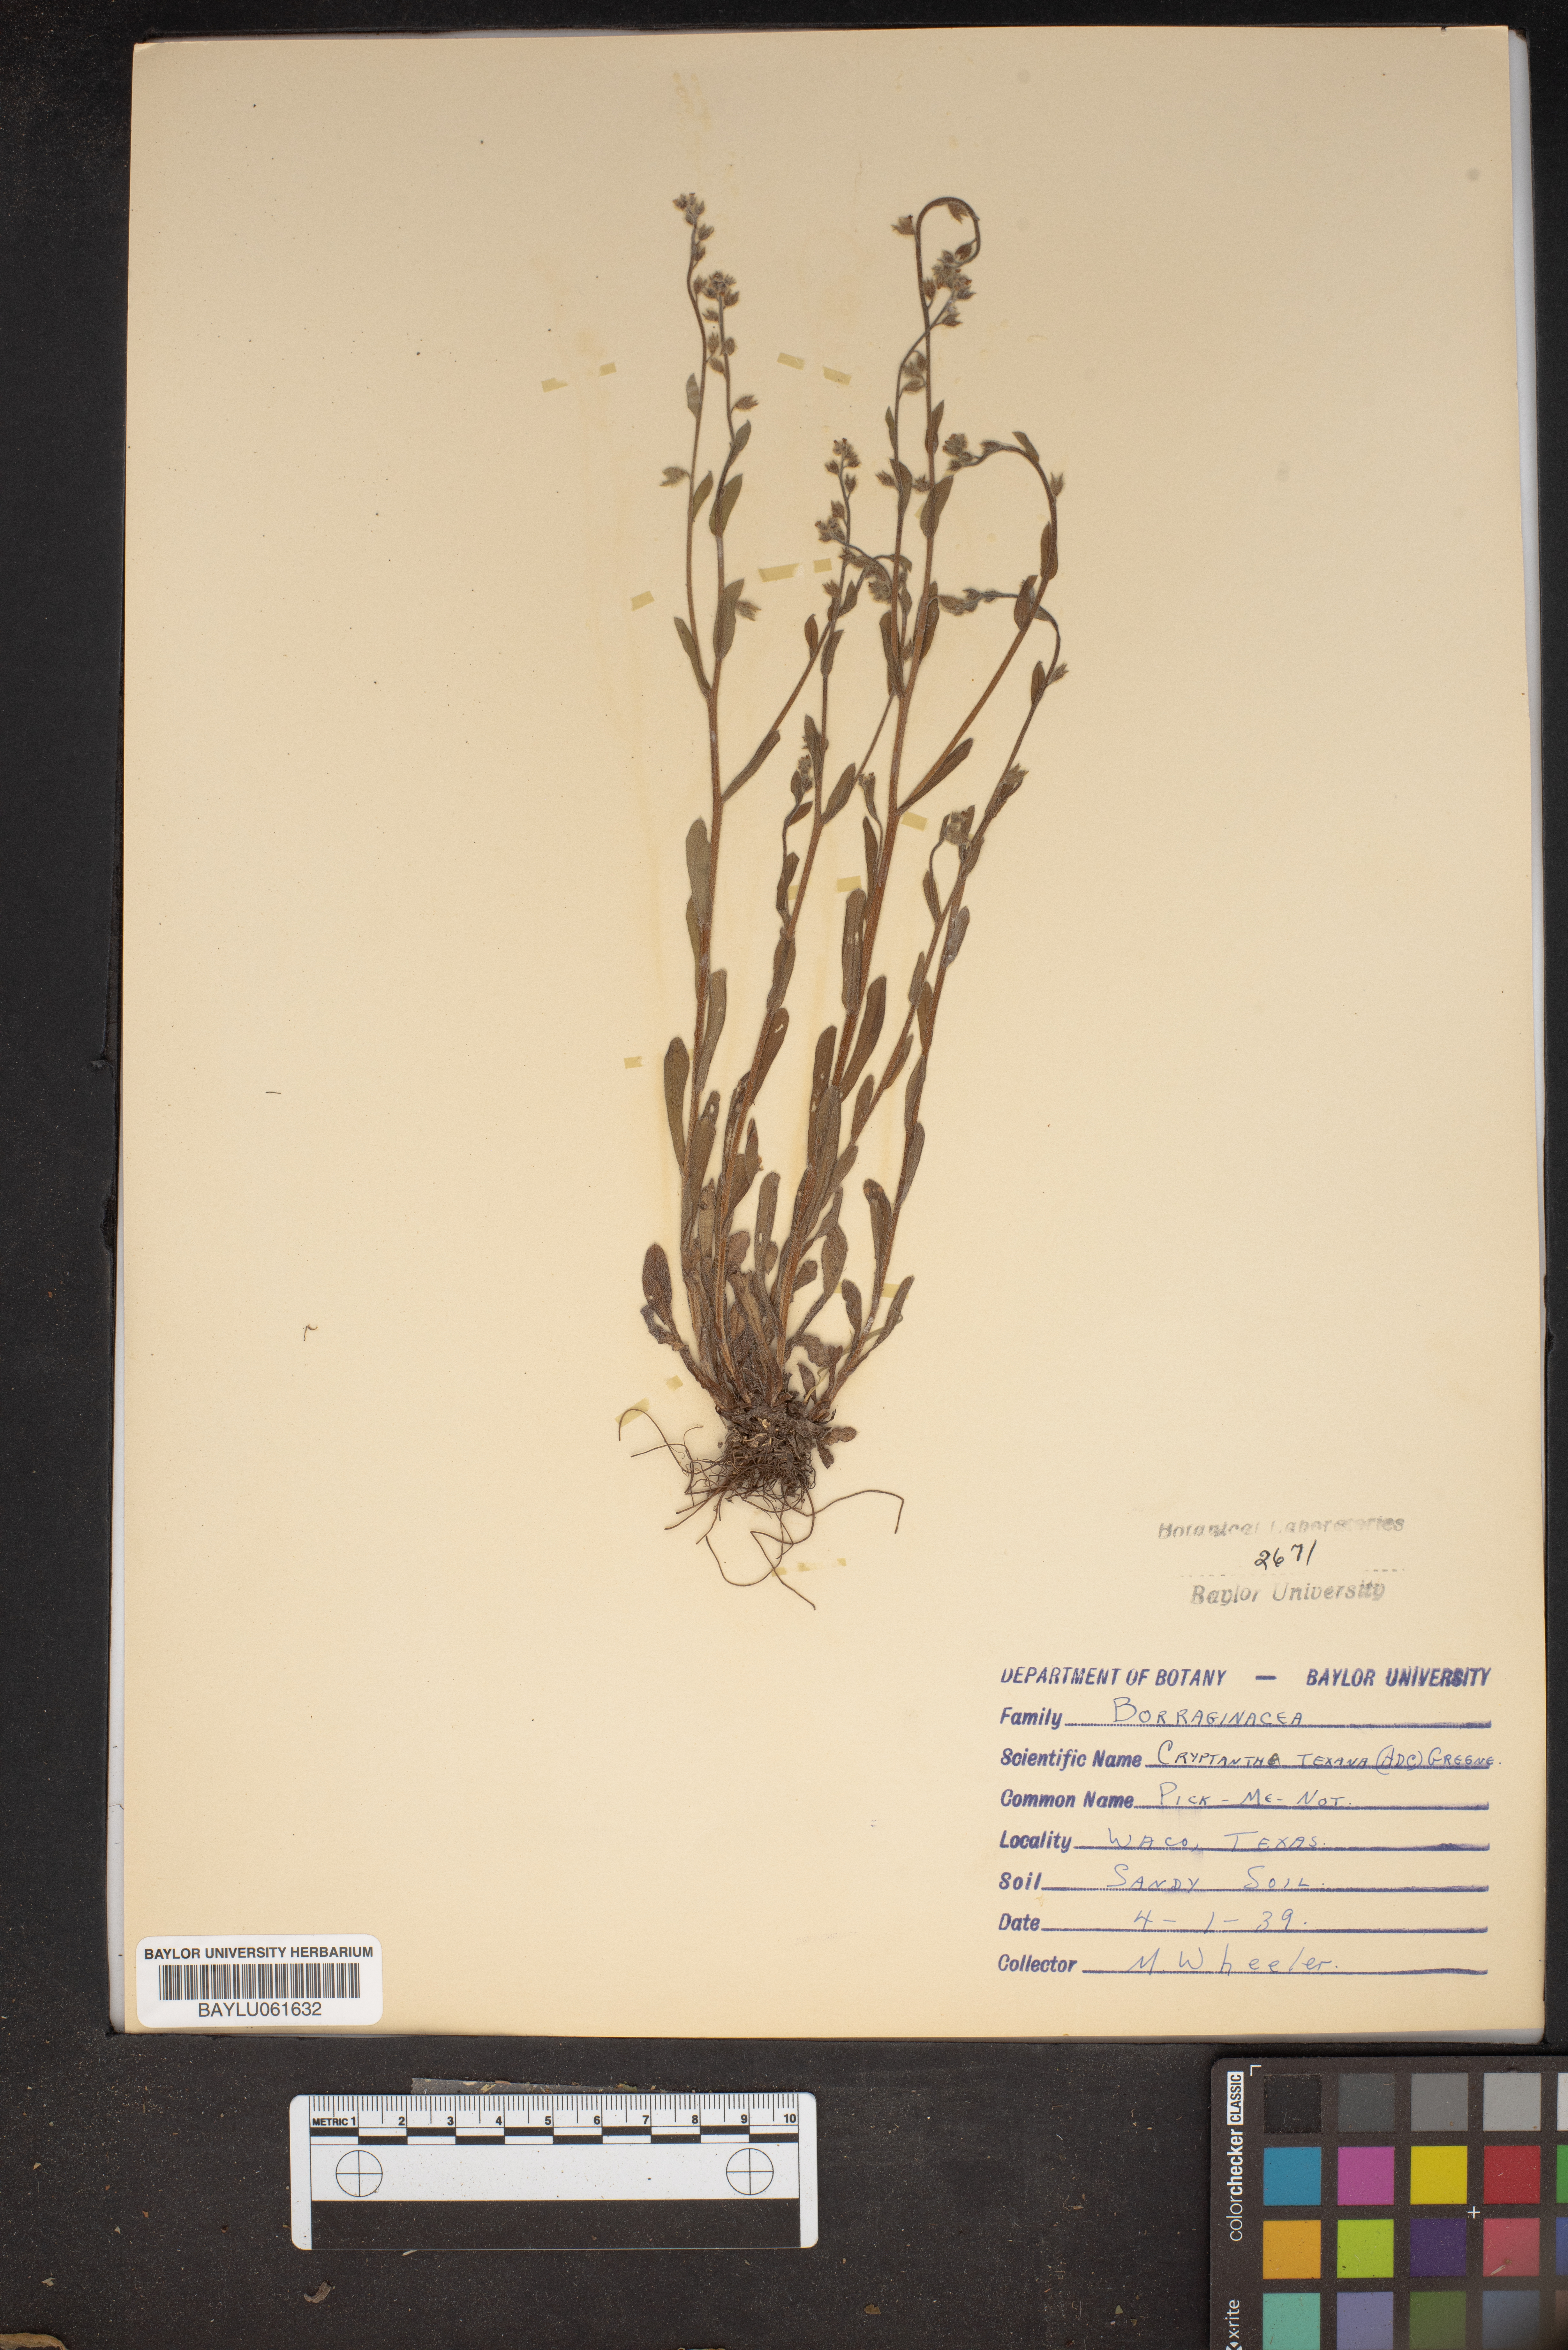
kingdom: Plantae
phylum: Tracheophyta
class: Magnoliopsida
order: Boraginales
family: Boraginaceae
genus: Cryptantha
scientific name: Cryptantha texana
